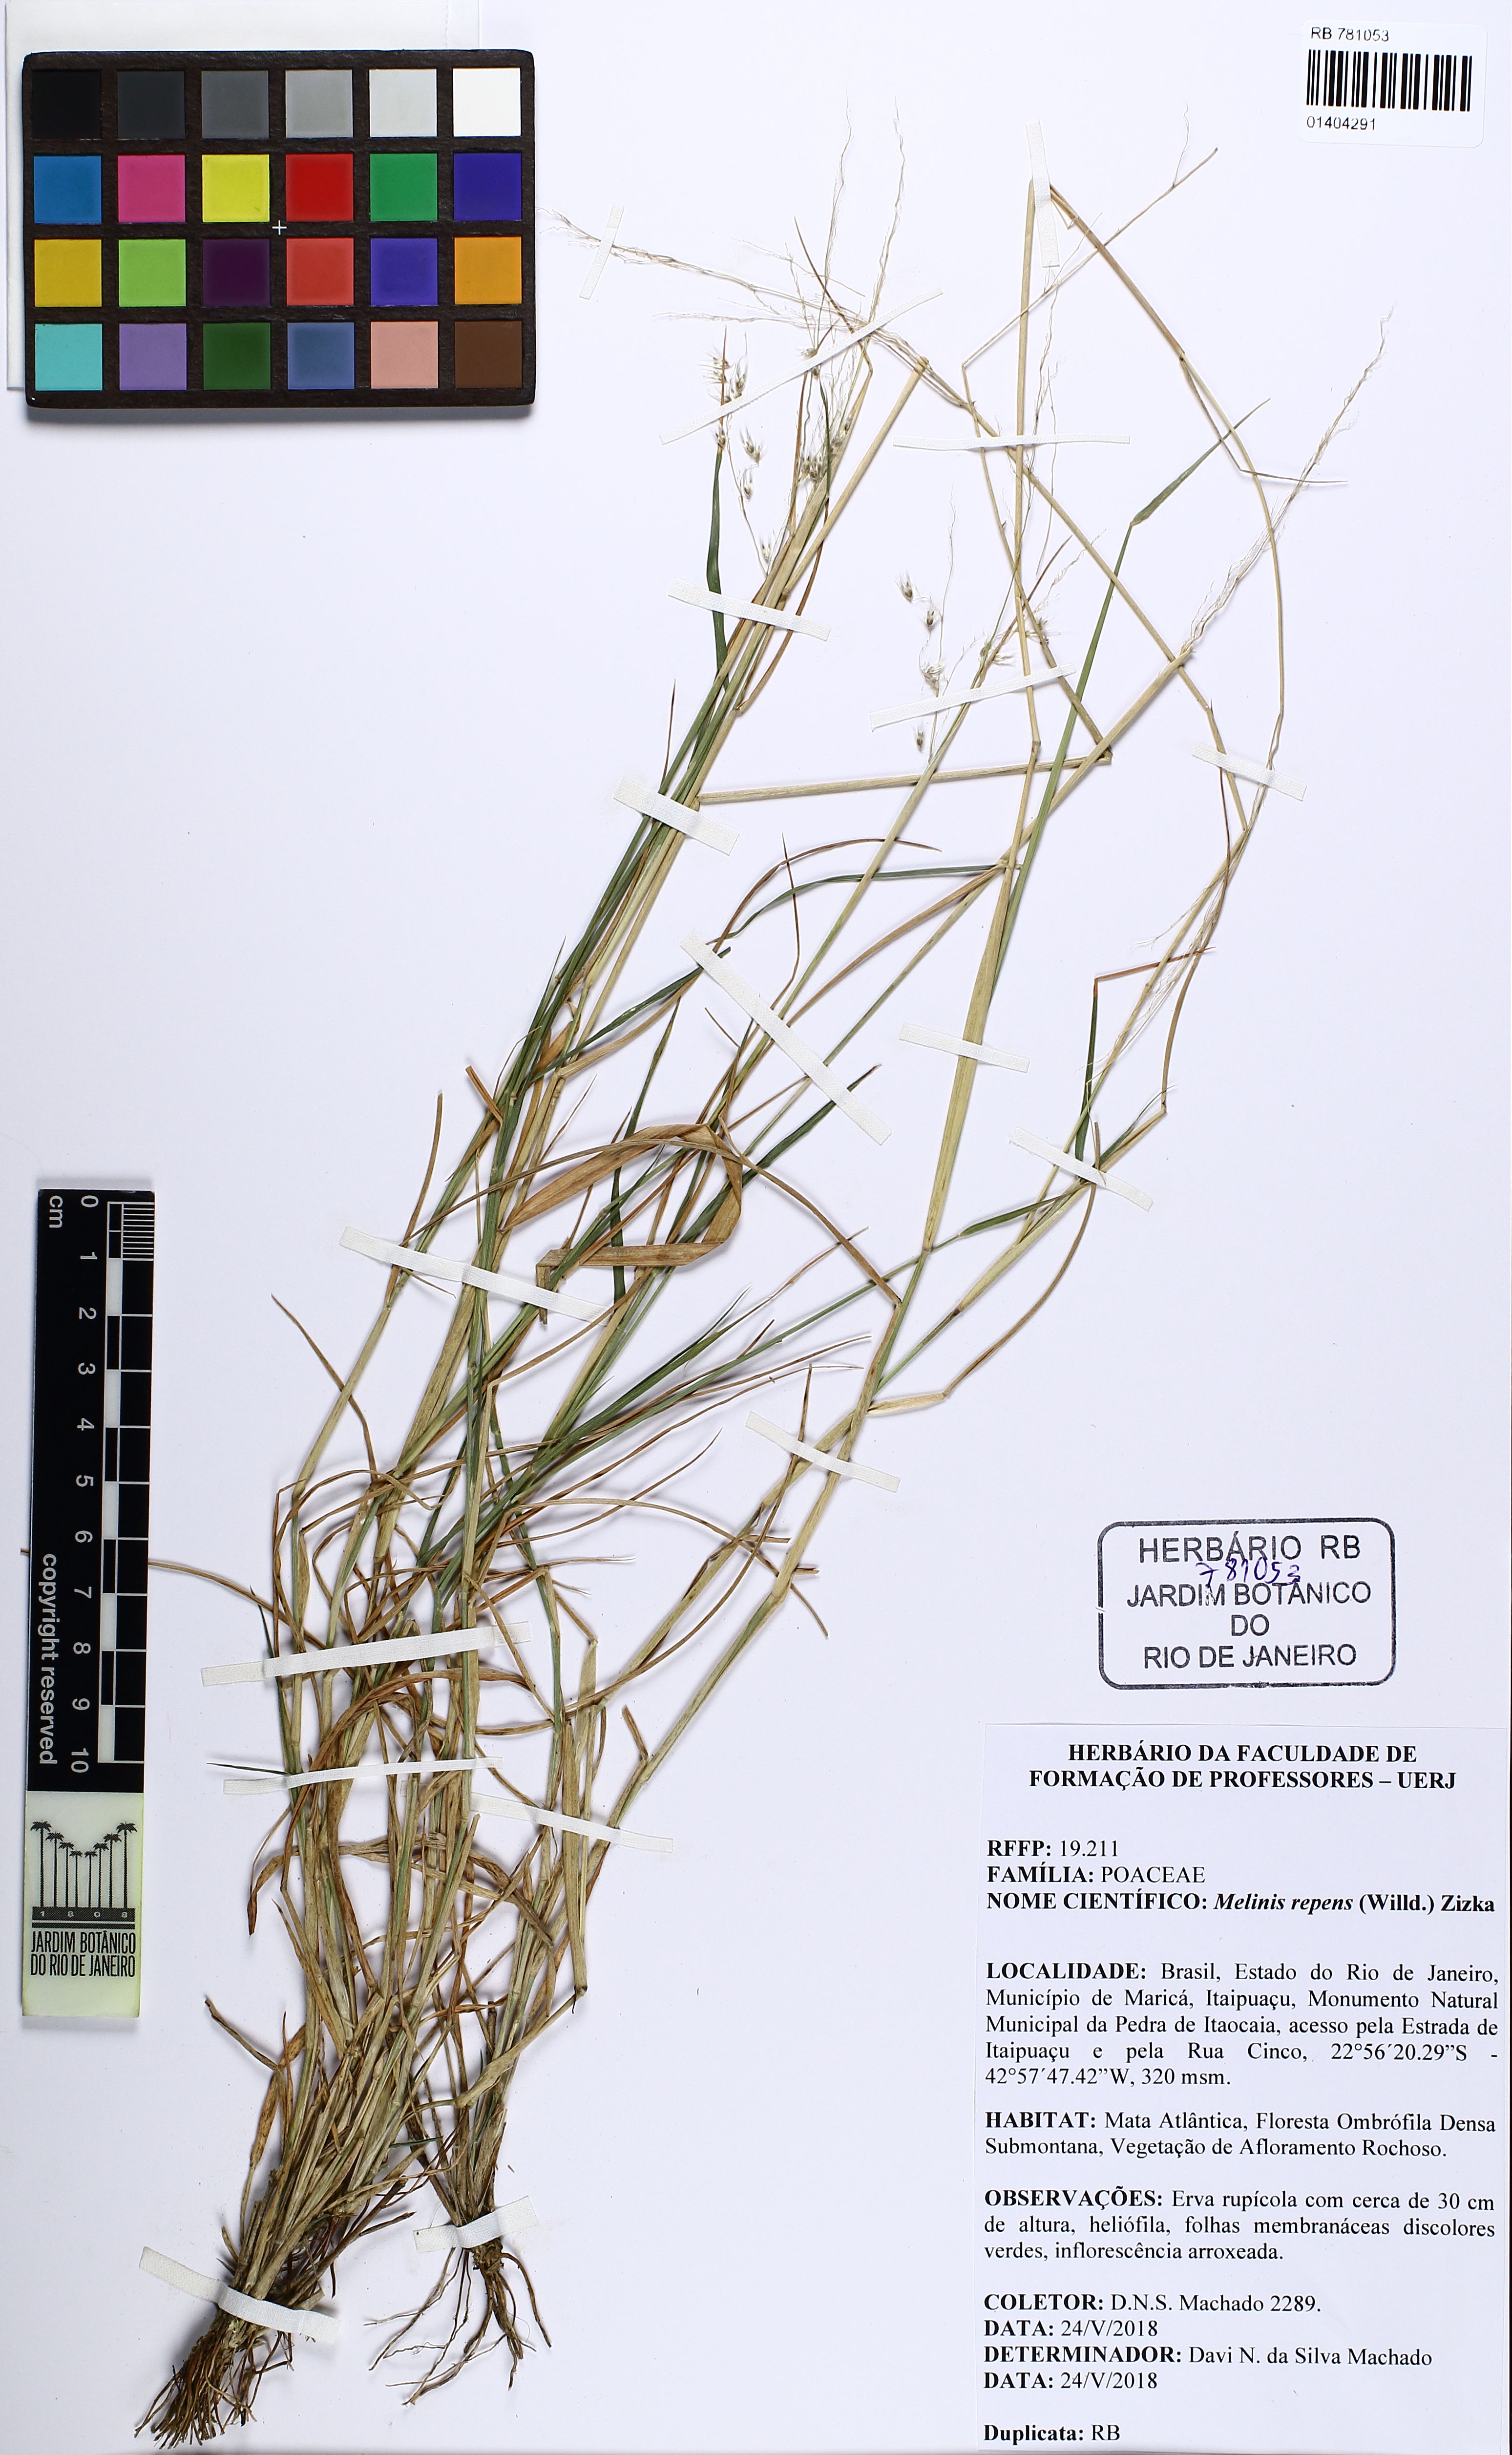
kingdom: Plantae
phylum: Tracheophyta
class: Liliopsida
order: Poales
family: Poaceae
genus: Melinis
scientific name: Melinis repens
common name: Rose natal grass
